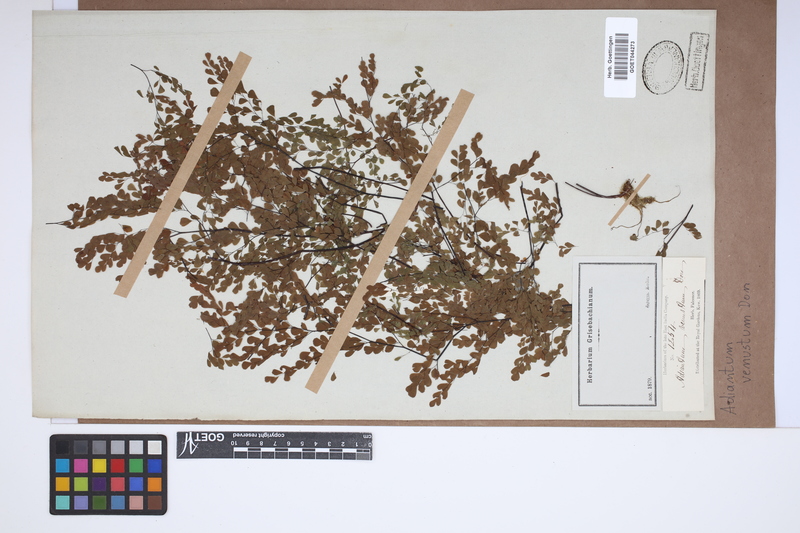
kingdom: Plantae
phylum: Tracheophyta
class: Polypodiopsida
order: Polypodiales
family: Pteridaceae
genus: Adiantum
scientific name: Adiantum venustum
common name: Evergreen maidenhair
